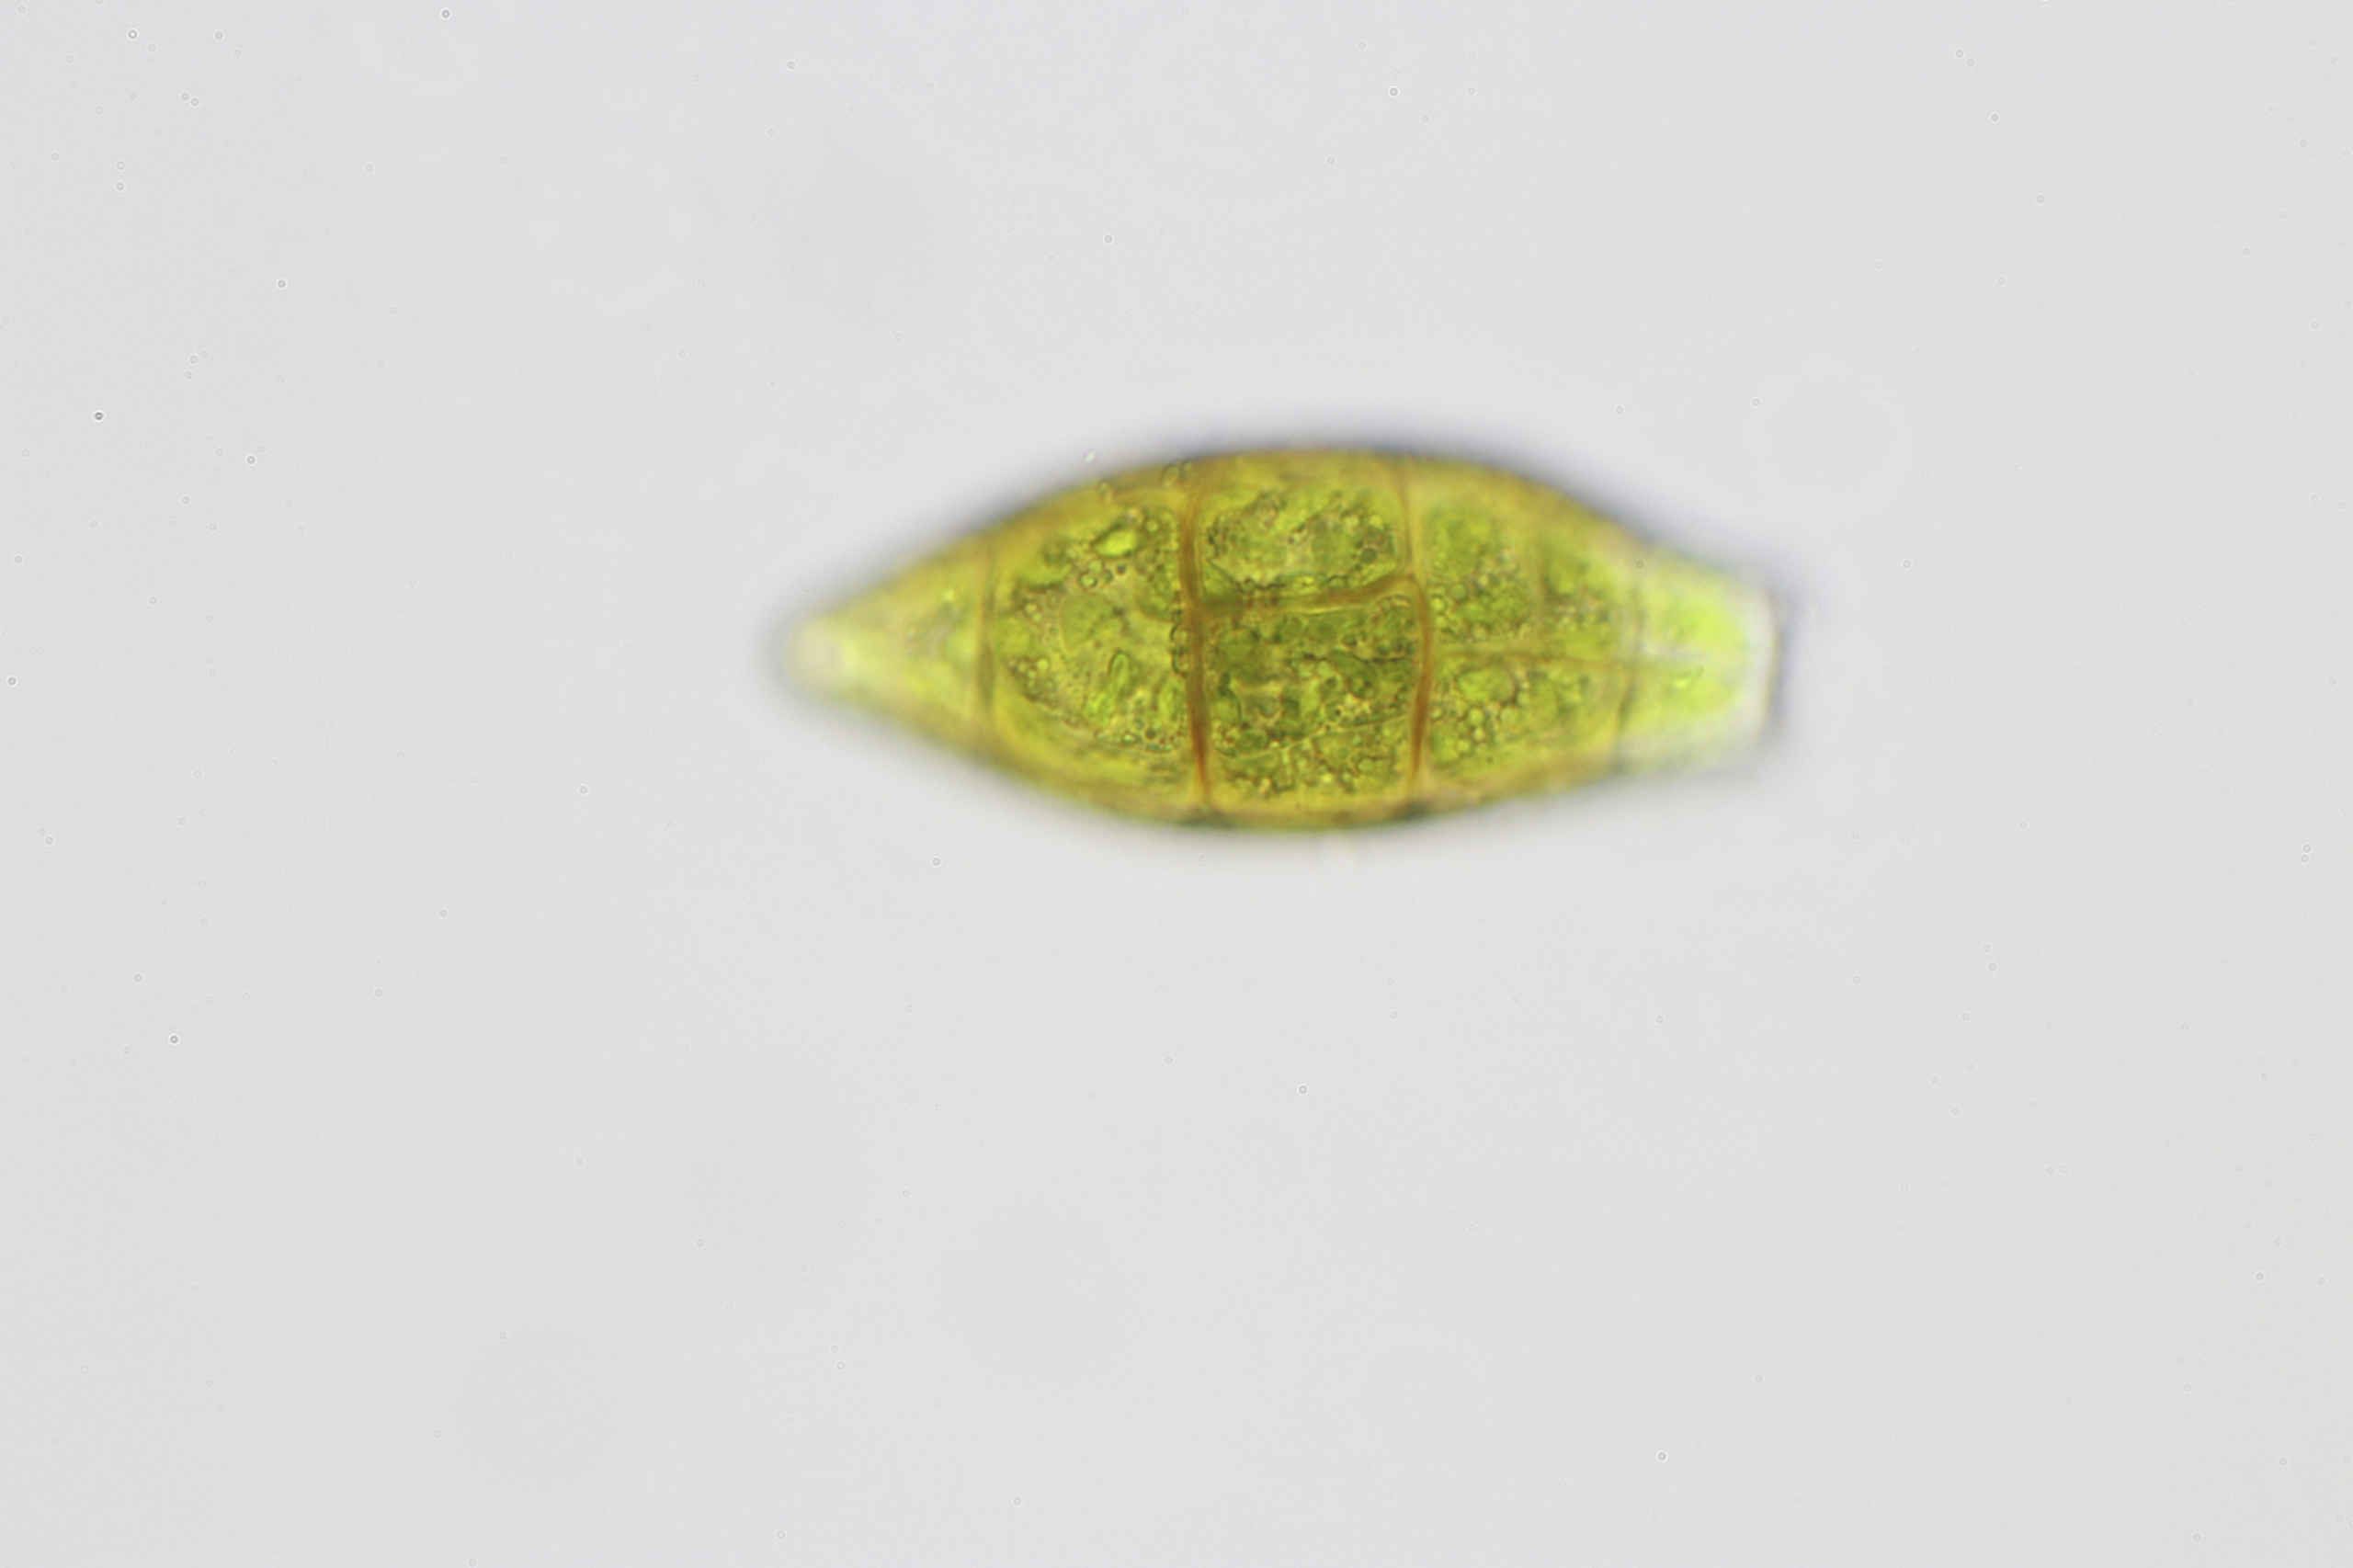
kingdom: Plantae
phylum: Bryophyta
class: Bryopsida
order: Orthotrichales
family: Orthotrichaceae
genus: Zygodon
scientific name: Zygodon viridissimus
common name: Grøn køllemos
